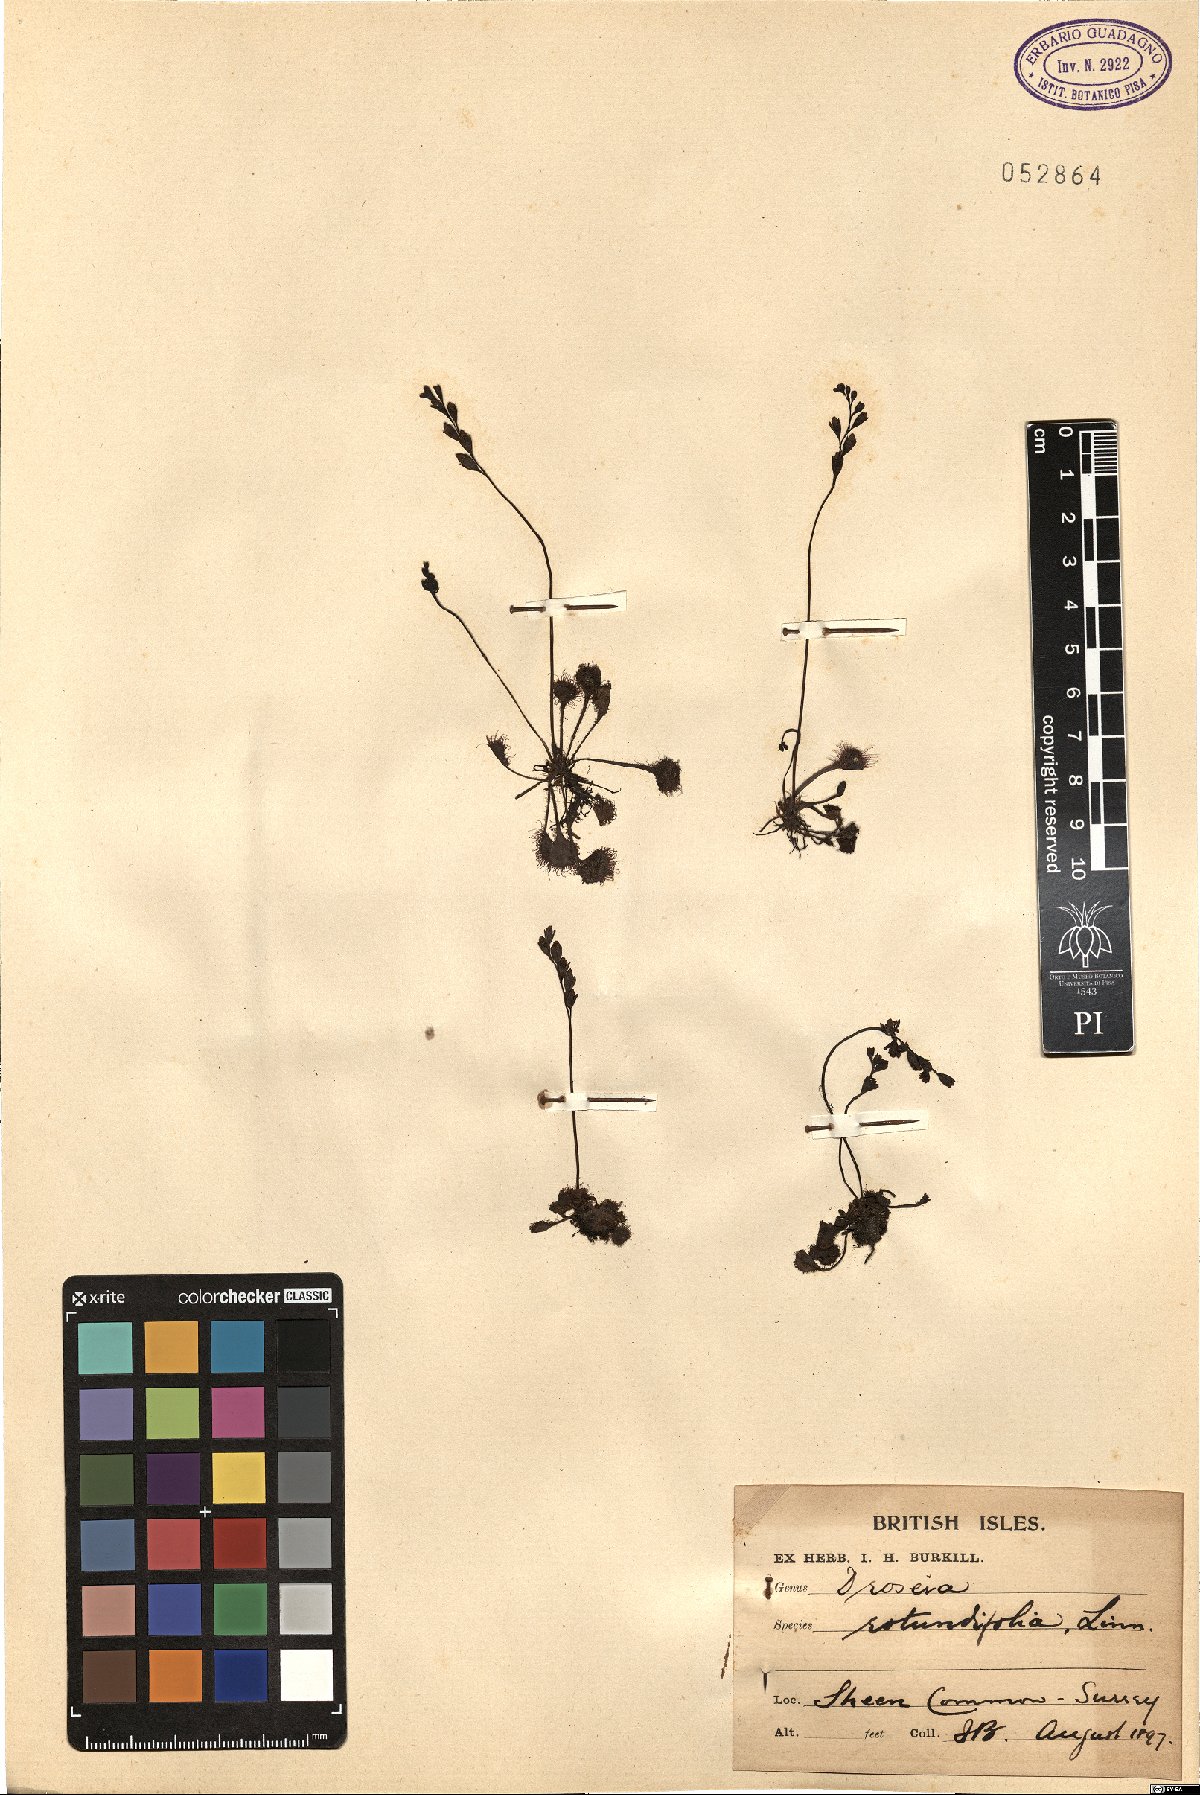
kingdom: Plantae
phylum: Tracheophyta
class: Magnoliopsida
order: Caryophyllales
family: Droseraceae
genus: Drosera
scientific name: Drosera rotundifolia
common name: Round-leaved sundew
